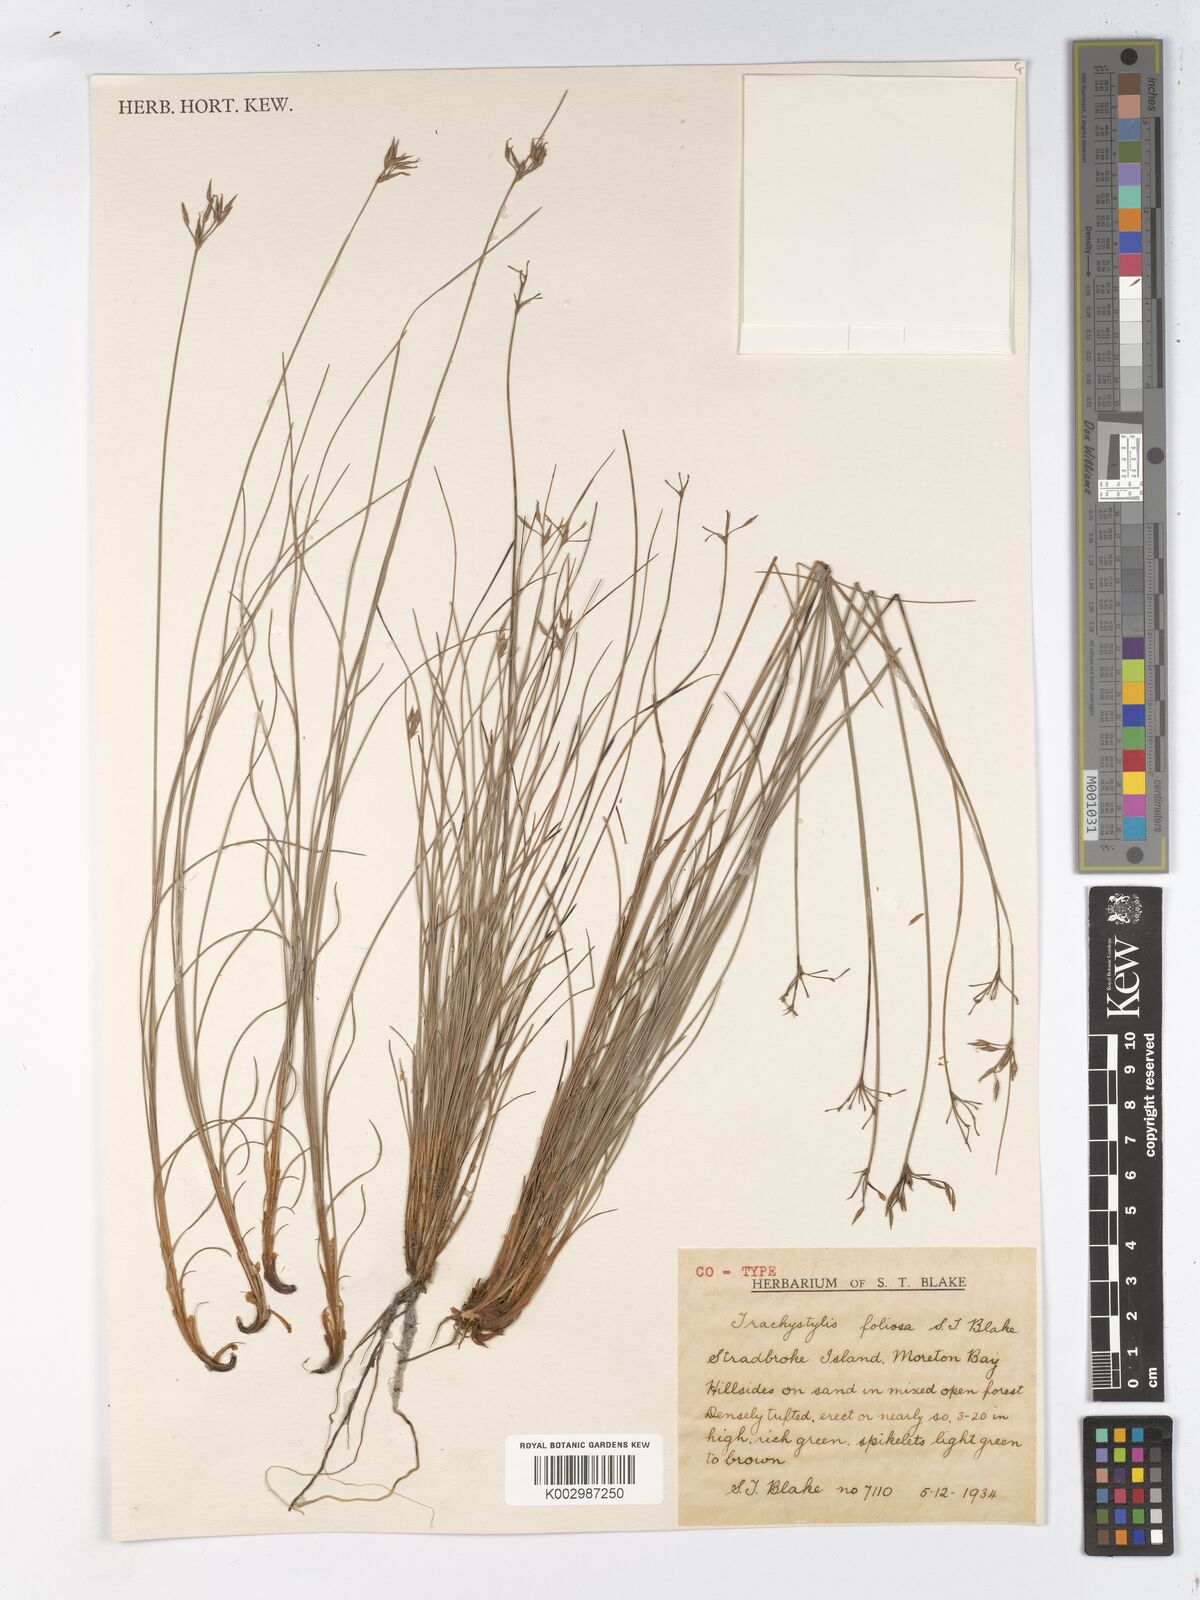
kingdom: Plantae
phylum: Tracheophyta
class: Liliopsida
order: Poales
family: Cyperaceae
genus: Trachystylis
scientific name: Trachystylis stradbrokensis
